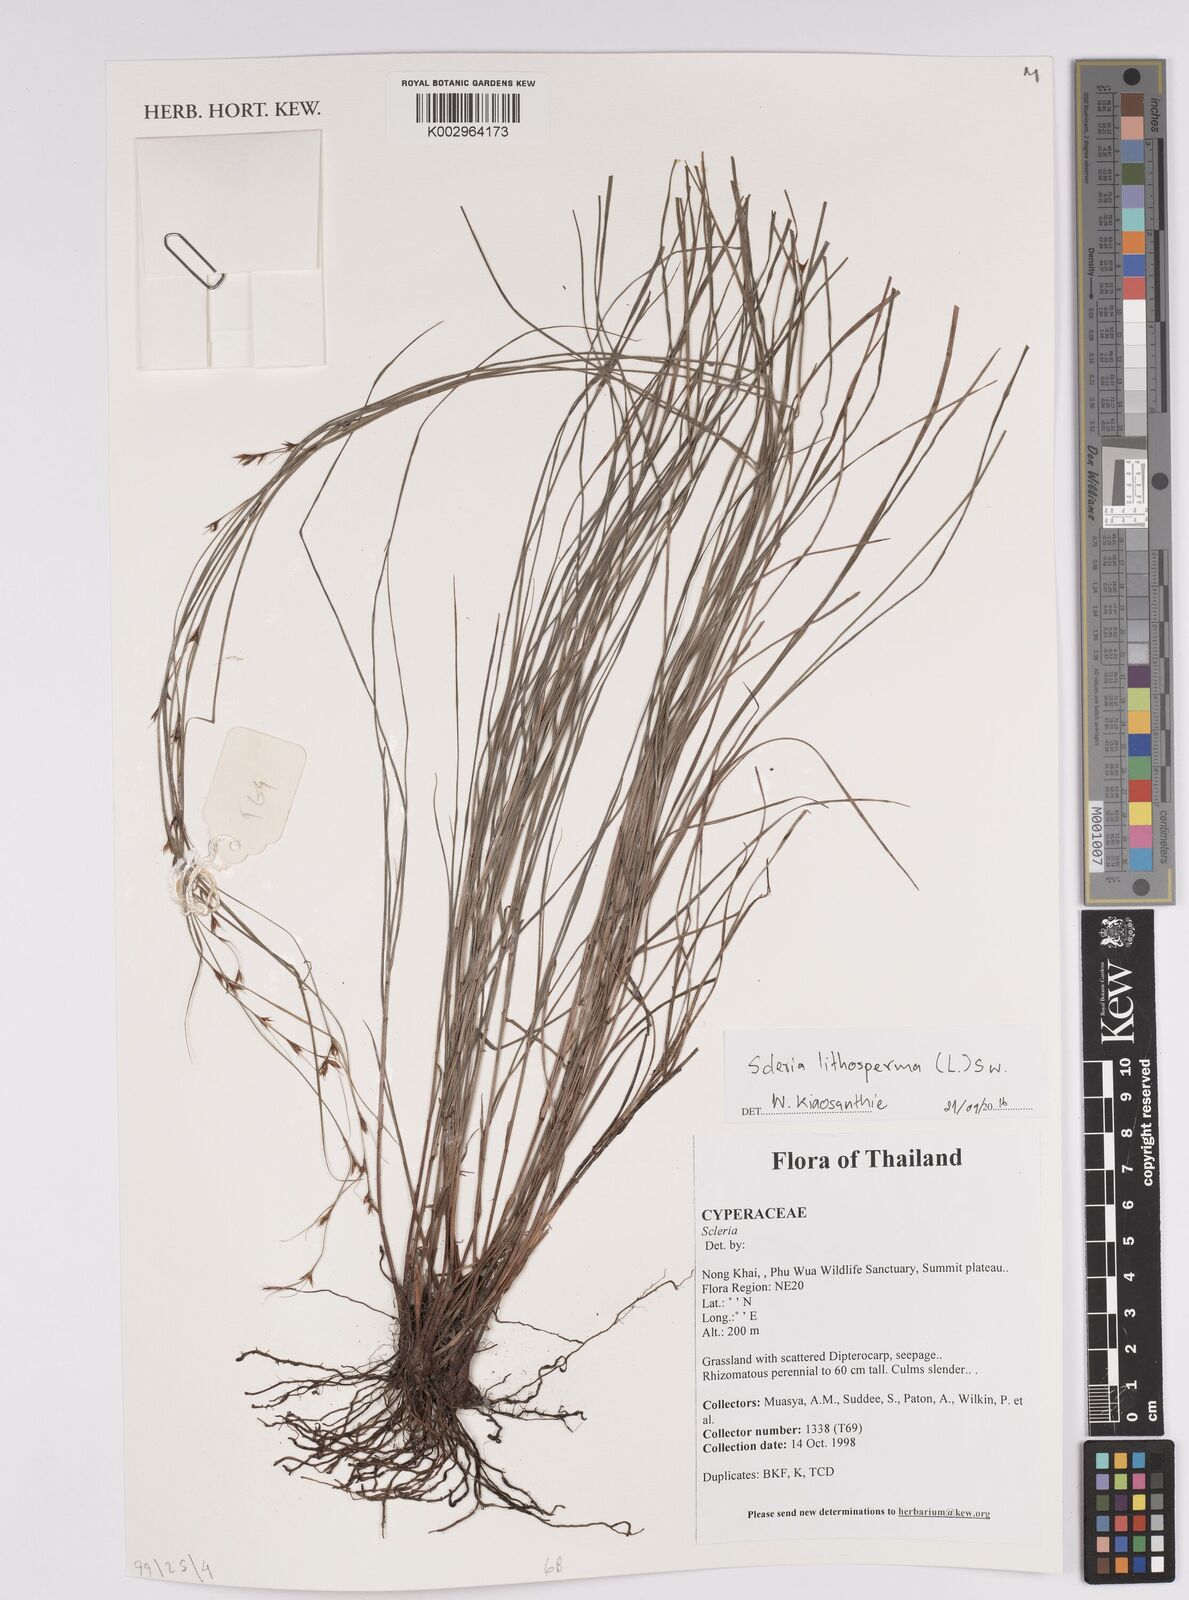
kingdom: Plantae
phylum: Tracheophyta
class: Liliopsida
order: Poales
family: Cyperaceae
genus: Scleria
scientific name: Scleria lithosperma
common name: Florida keys nut-rush
